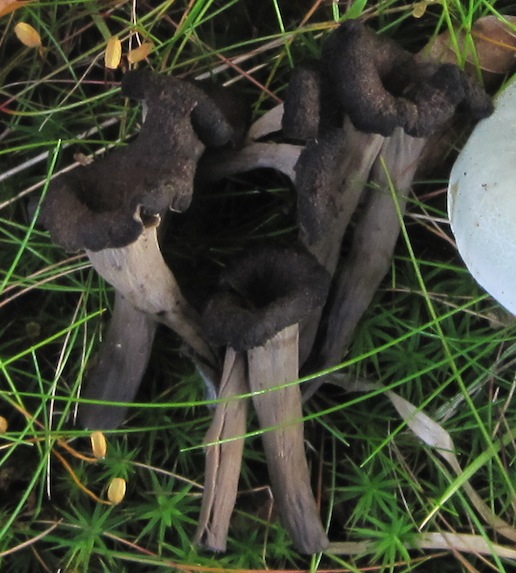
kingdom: Fungi
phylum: Basidiomycota
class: Agaricomycetes
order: Cantharellales
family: Hydnaceae
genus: Craterellus
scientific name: Craterellus cornucopioides
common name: trompetsvamp
